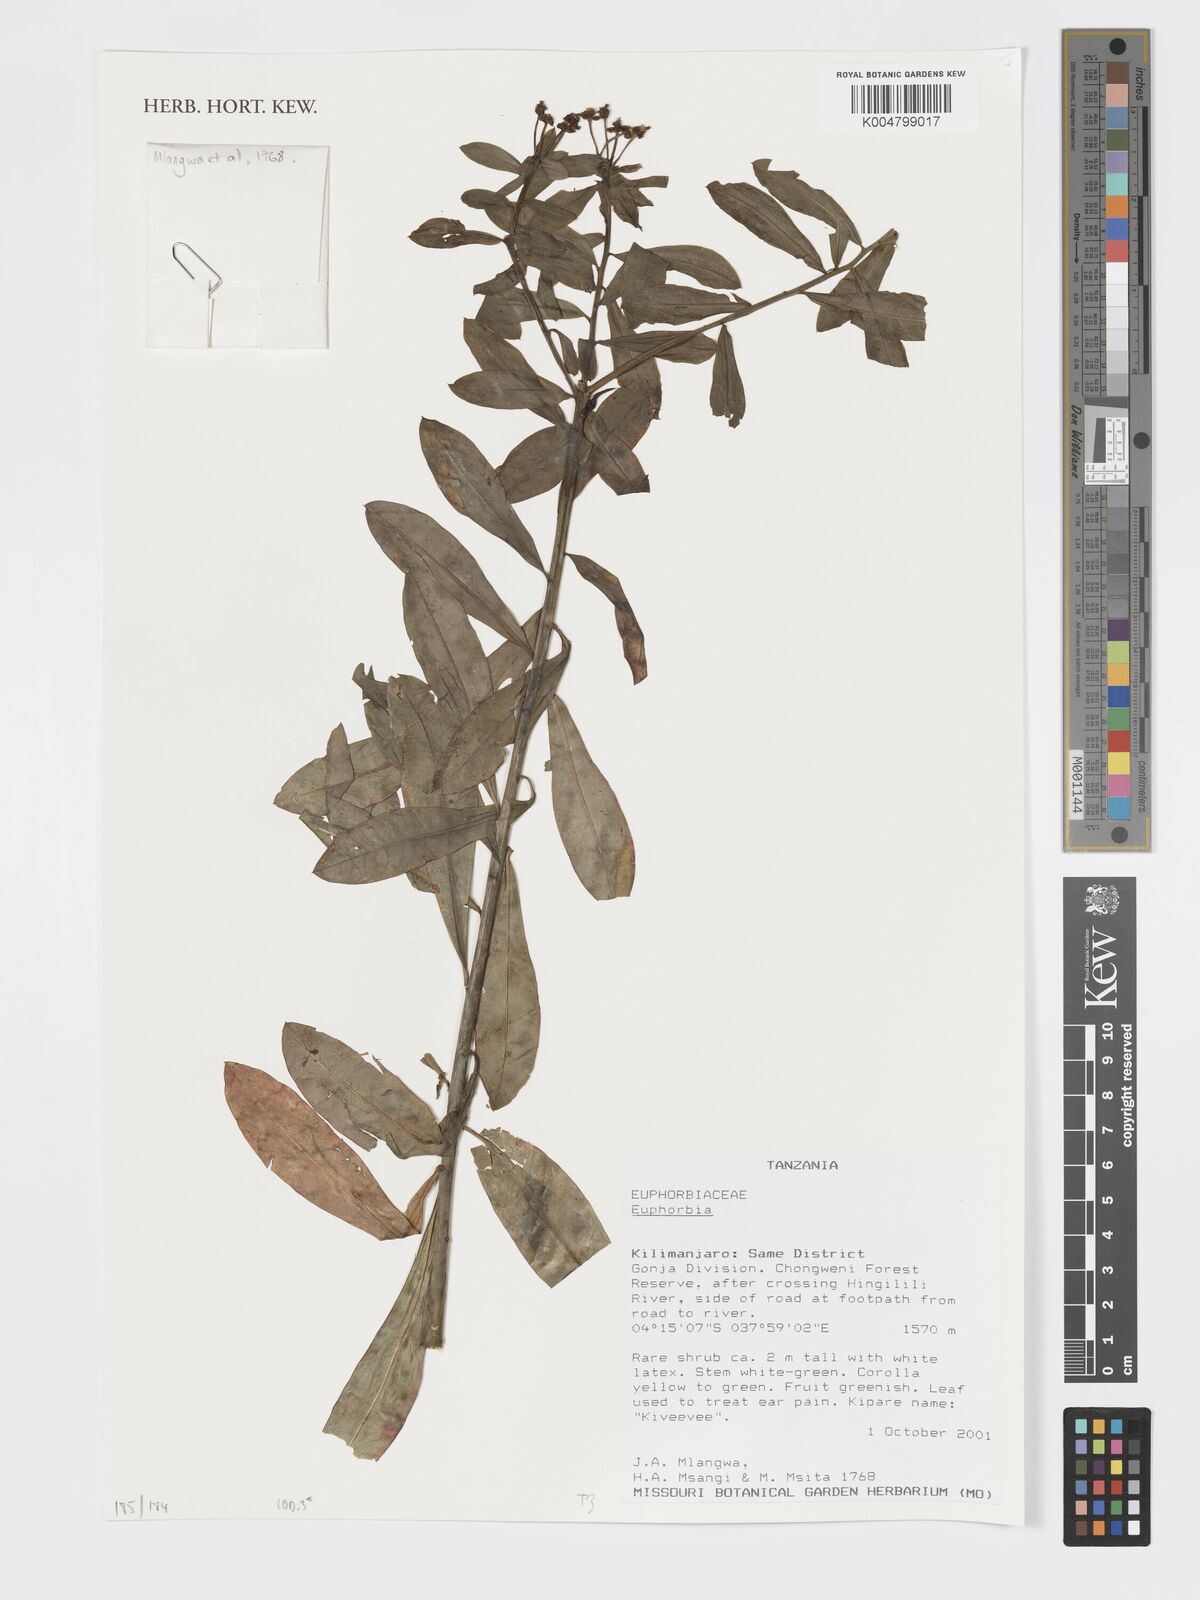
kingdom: Plantae
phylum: Tracheophyta
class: Magnoliopsida
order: Malpighiales
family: Euphorbiaceae
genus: Euphorbia
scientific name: Euphorbia
